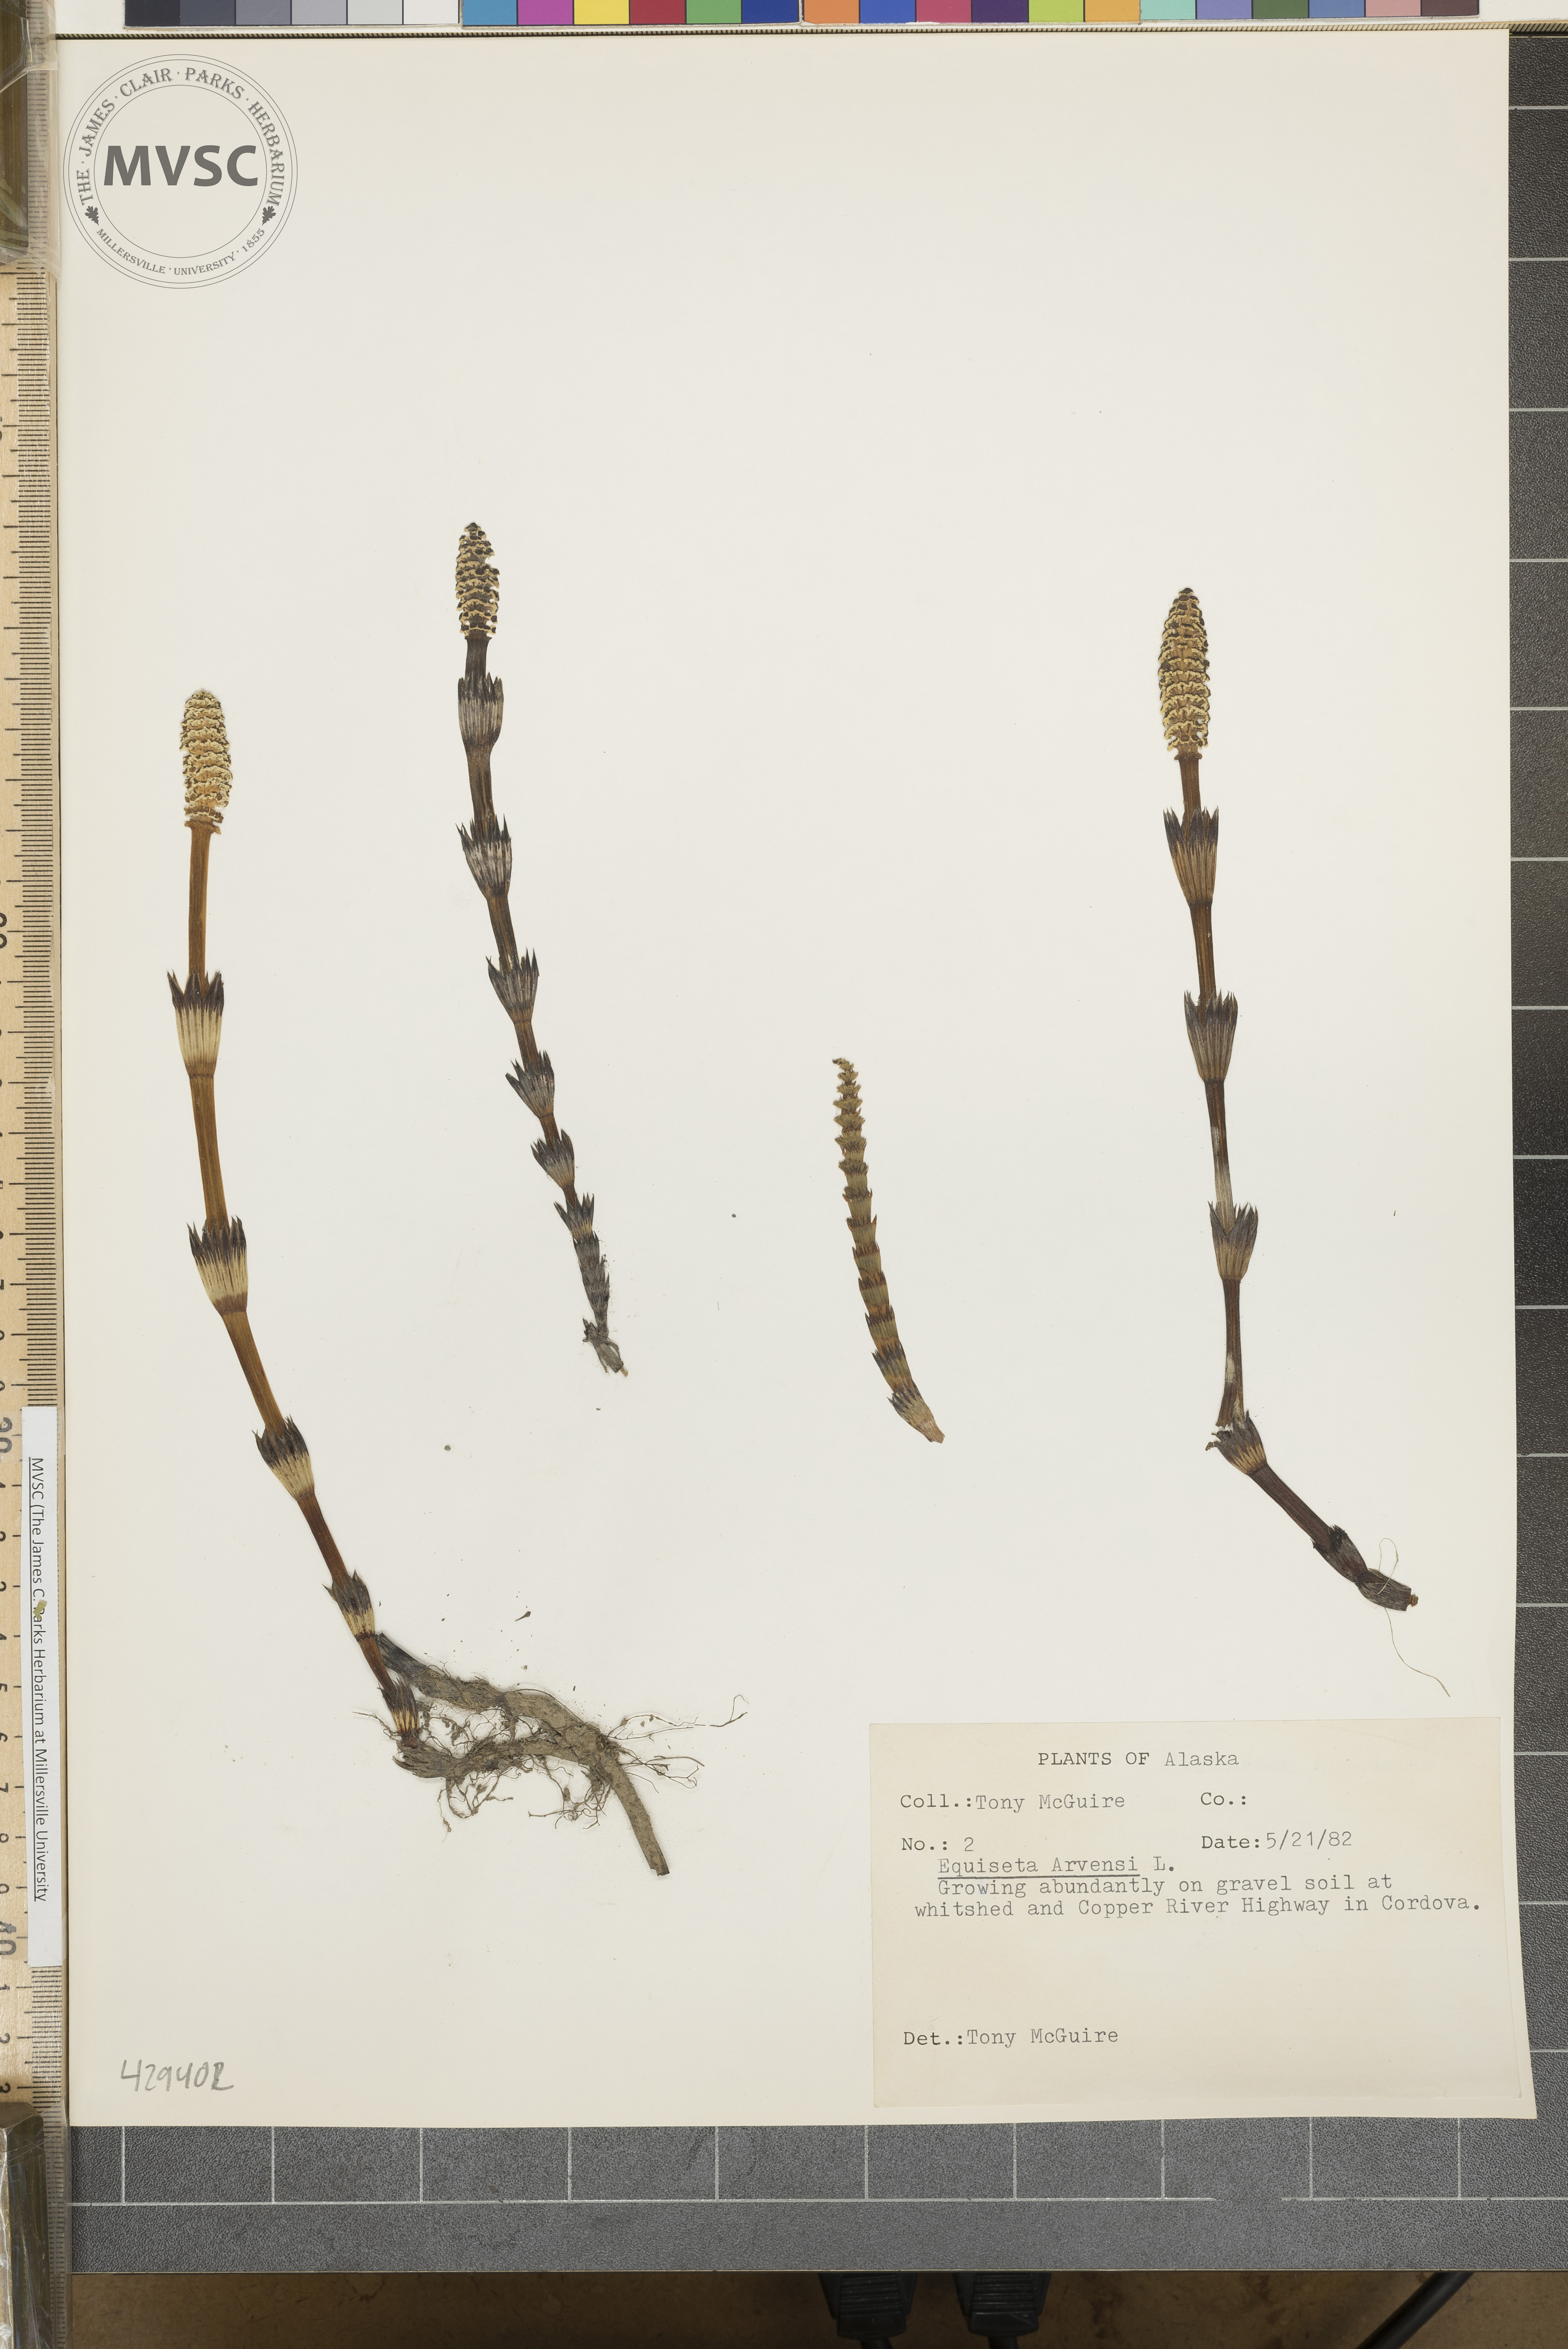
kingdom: Plantae
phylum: Tracheophyta
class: Polypodiopsida
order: Equisetales
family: Equisetaceae
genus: Equisetum
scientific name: Equisetum arvense
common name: Field horsetail
